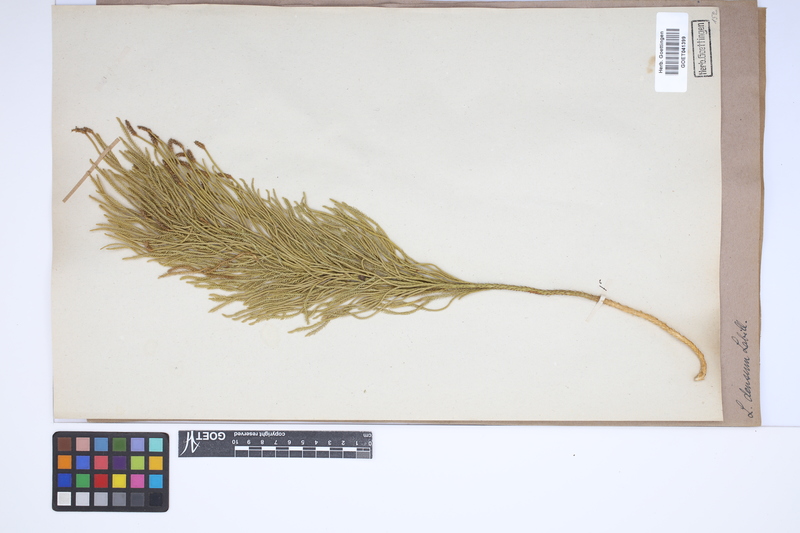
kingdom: Plantae
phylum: Tracheophyta
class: Lycopodiopsida
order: Lycopodiales
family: Lycopodiaceae
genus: Pseudolycopodium
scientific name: Pseudolycopodium densum
